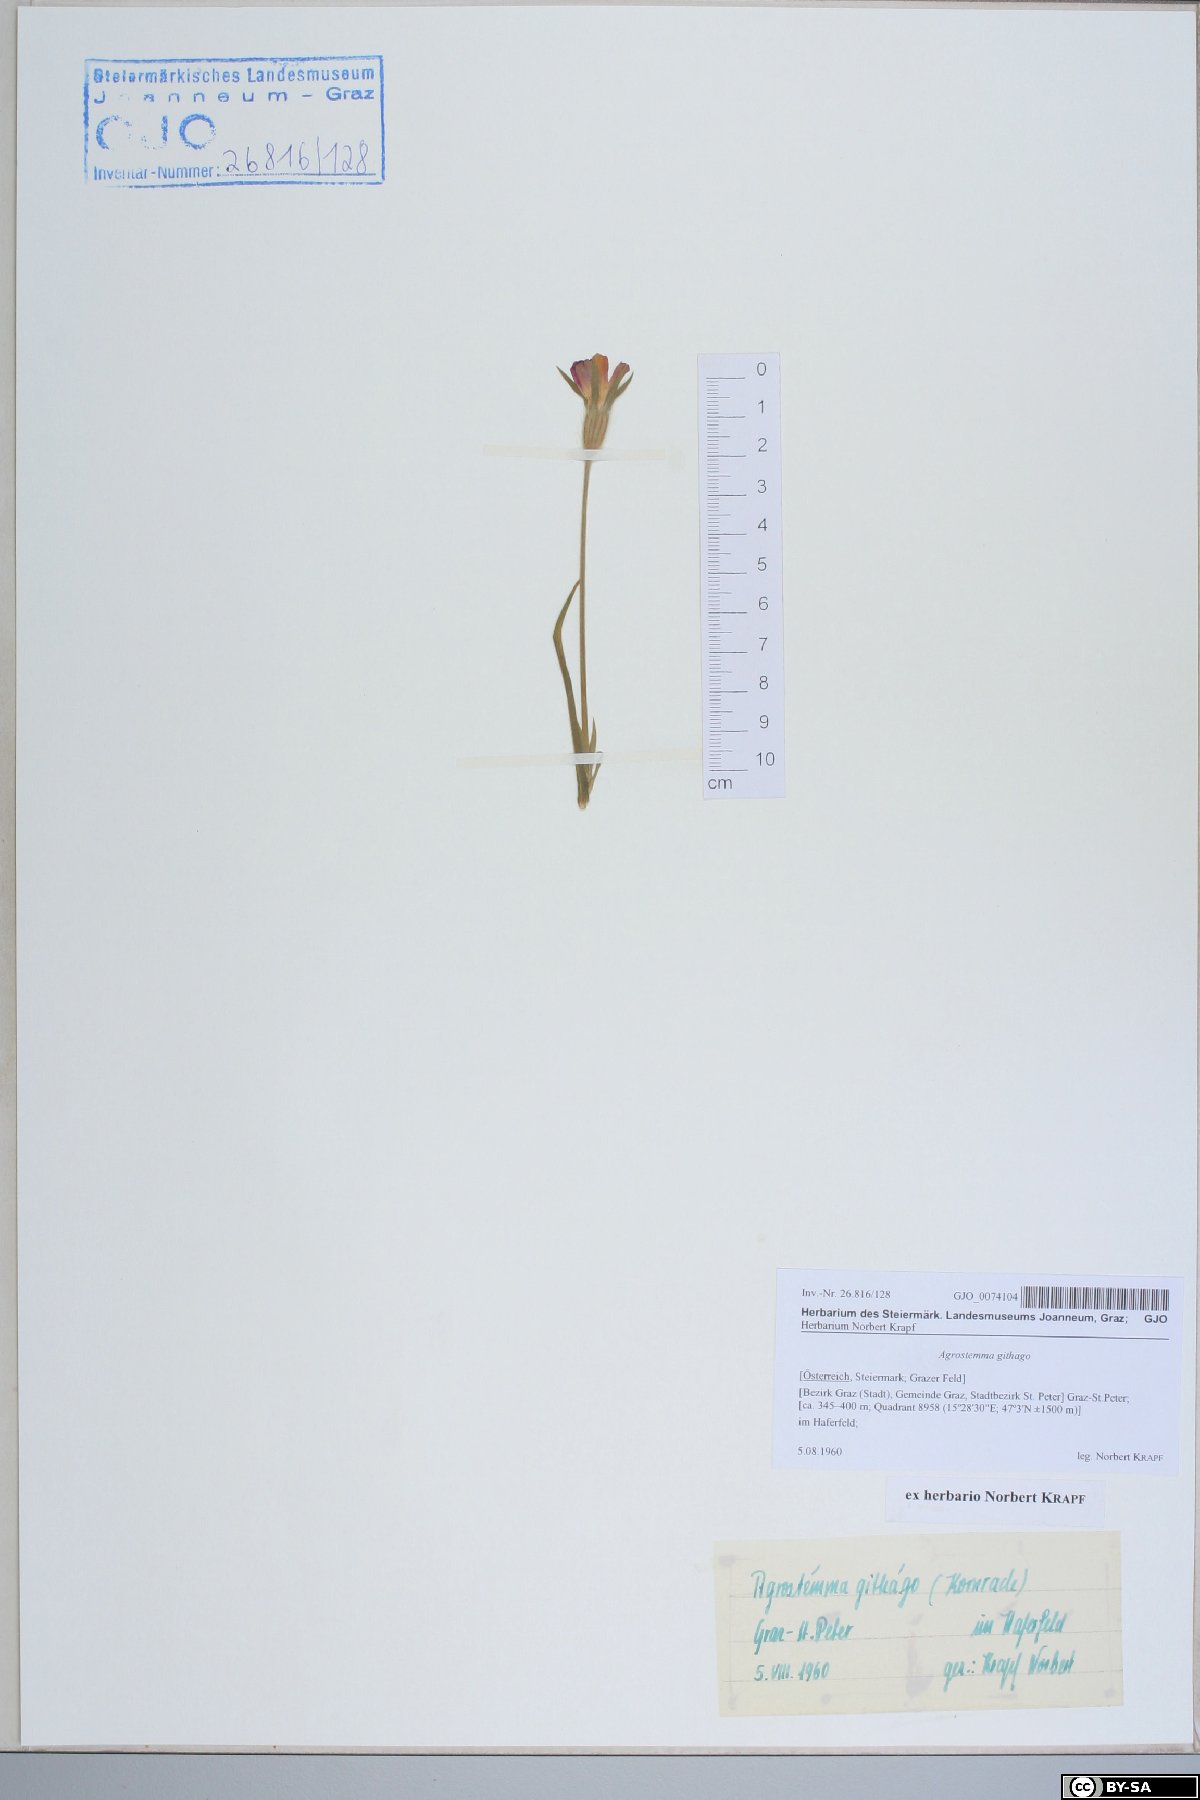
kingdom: Plantae
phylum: Tracheophyta
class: Magnoliopsida
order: Caryophyllales
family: Caryophyllaceae
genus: Agrostemma
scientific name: Agrostemma githago
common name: Common corncockle
